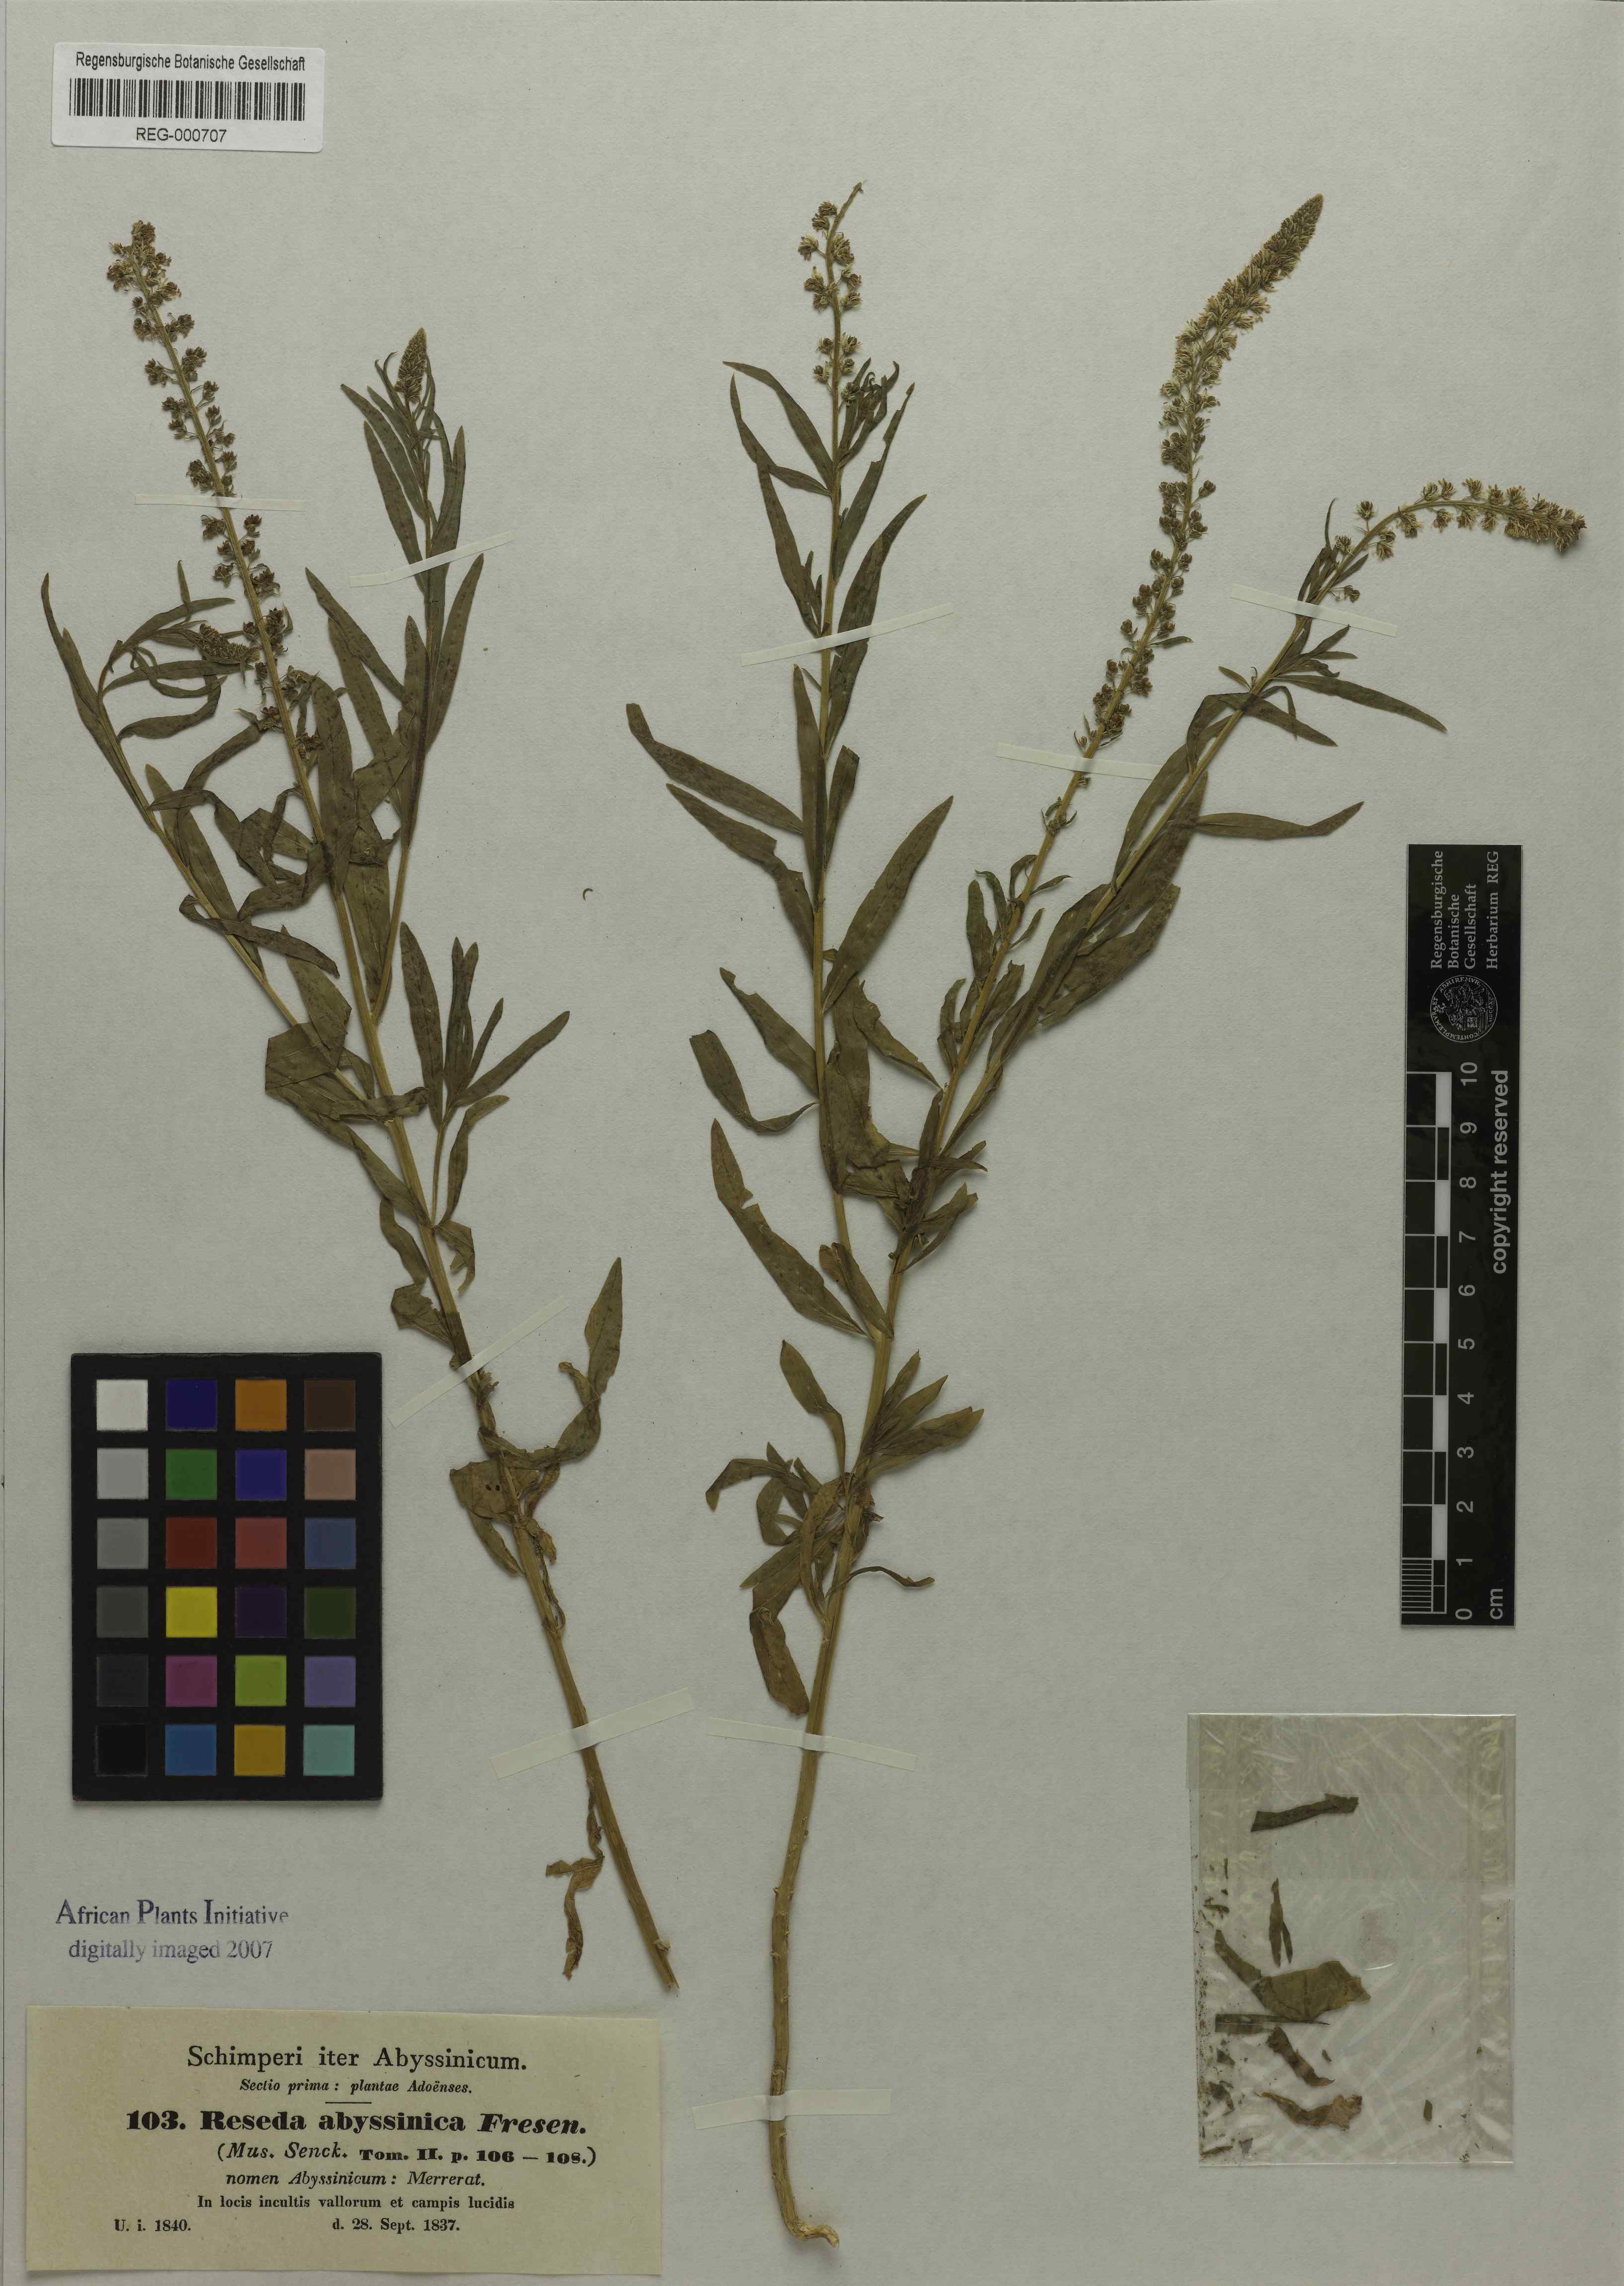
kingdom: Plantae
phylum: Tracheophyta
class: Magnoliopsida
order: Brassicales
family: Resedaceae
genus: Caylusea
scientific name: Caylusea abyssinica
